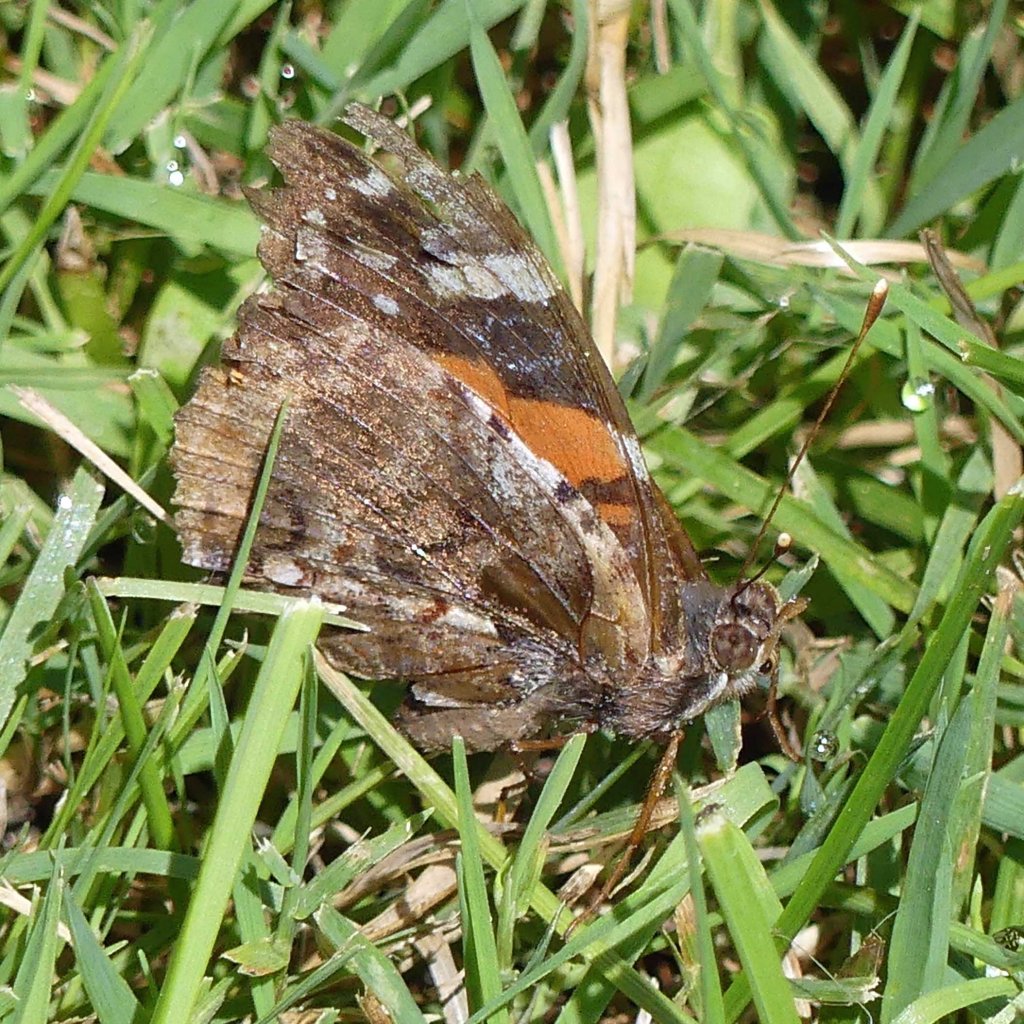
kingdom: Animalia
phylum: Arthropoda
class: Insecta
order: Lepidoptera
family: Nymphalidae
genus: Vanessa
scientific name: Vanessa atalanta
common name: Red Admiral
